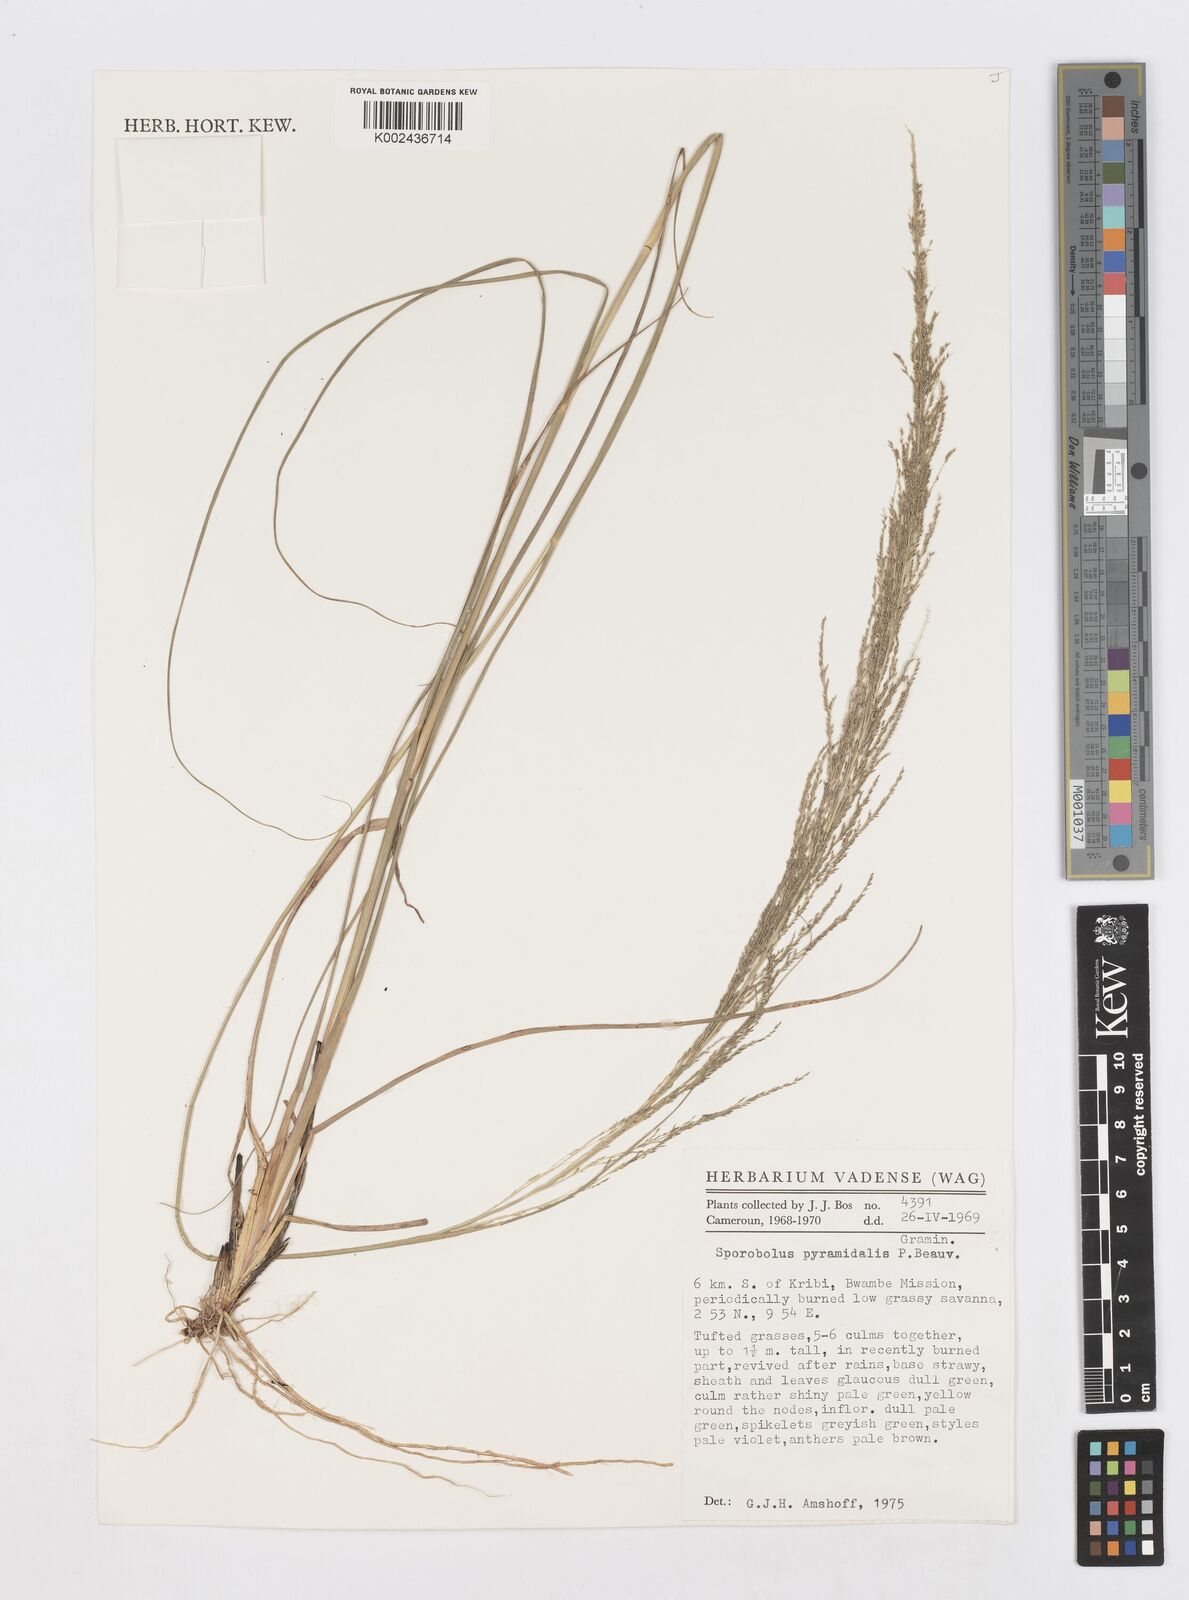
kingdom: Plantae
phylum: Tracheophyta
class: Liliopsida
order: Poales
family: Poaceae
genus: Sporobolus
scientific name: Sporobolus pyramidalis
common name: West indian dropseed
